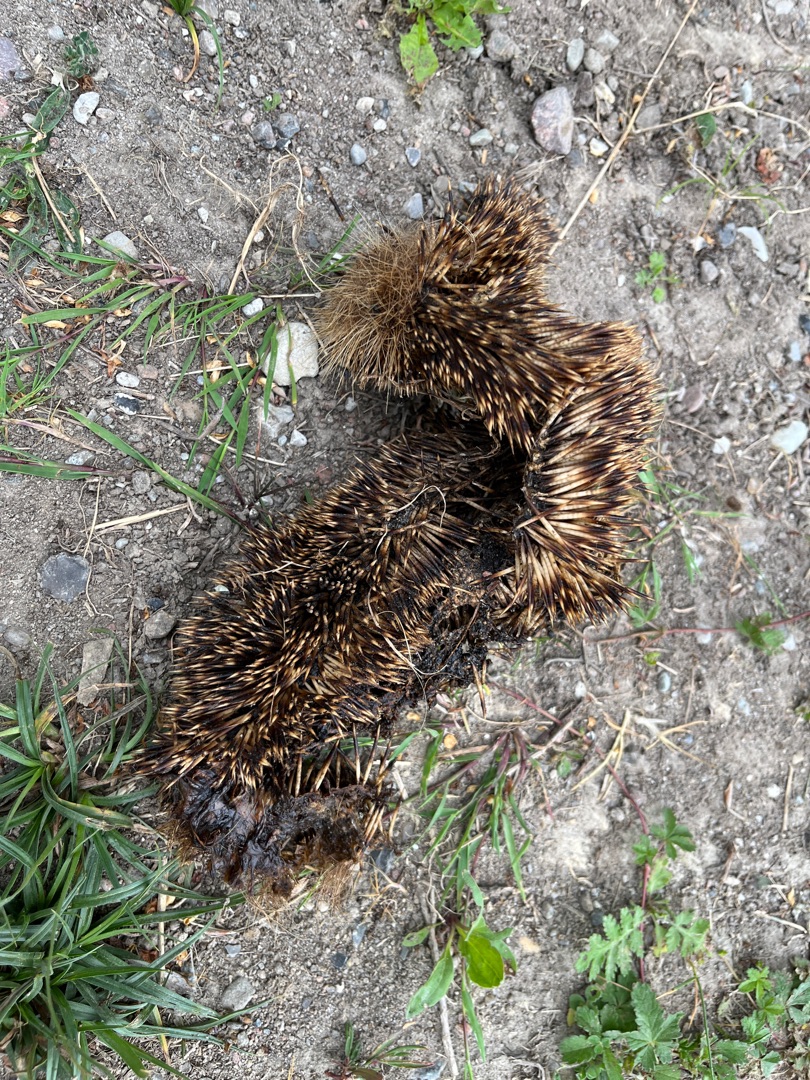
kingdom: Animalia
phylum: Chordata
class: Mammalia
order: Erinaceomorpha
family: Erinaceidae
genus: Erinaceus
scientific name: Erinaceus europaeus
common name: Pindsvin
